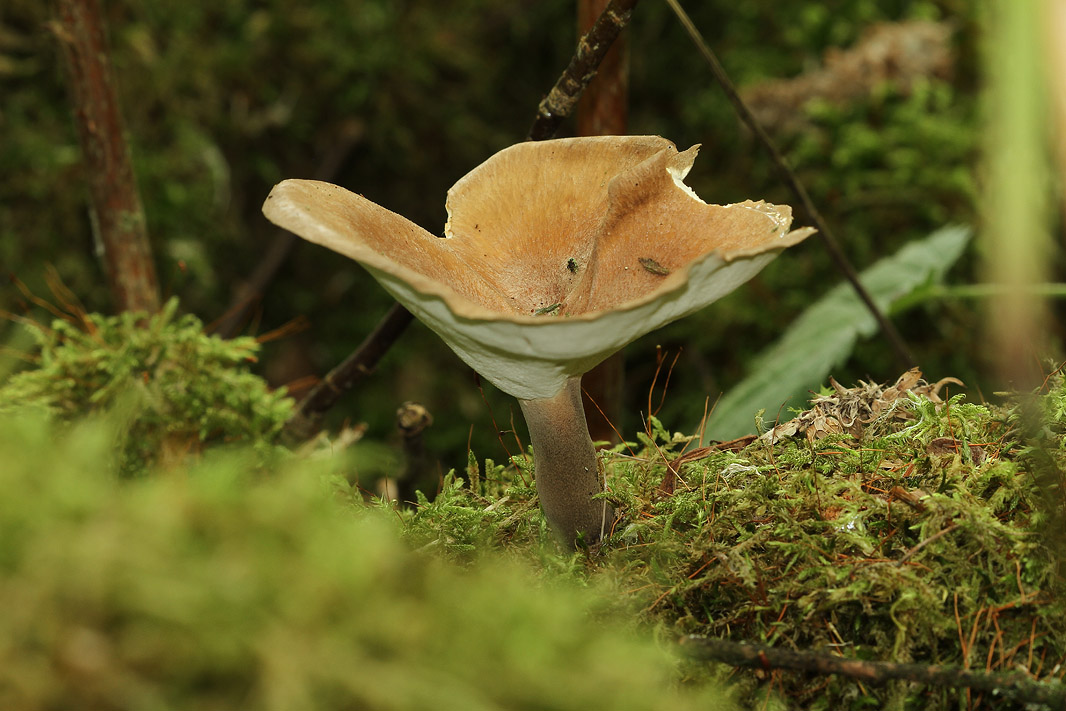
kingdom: Fungi
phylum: Basidiomycota
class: Agaricomycetes
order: Polyporales
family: Polyporaceae
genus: Picipes
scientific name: Picipes tubaeformis
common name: trompet-stilkporesvamp
